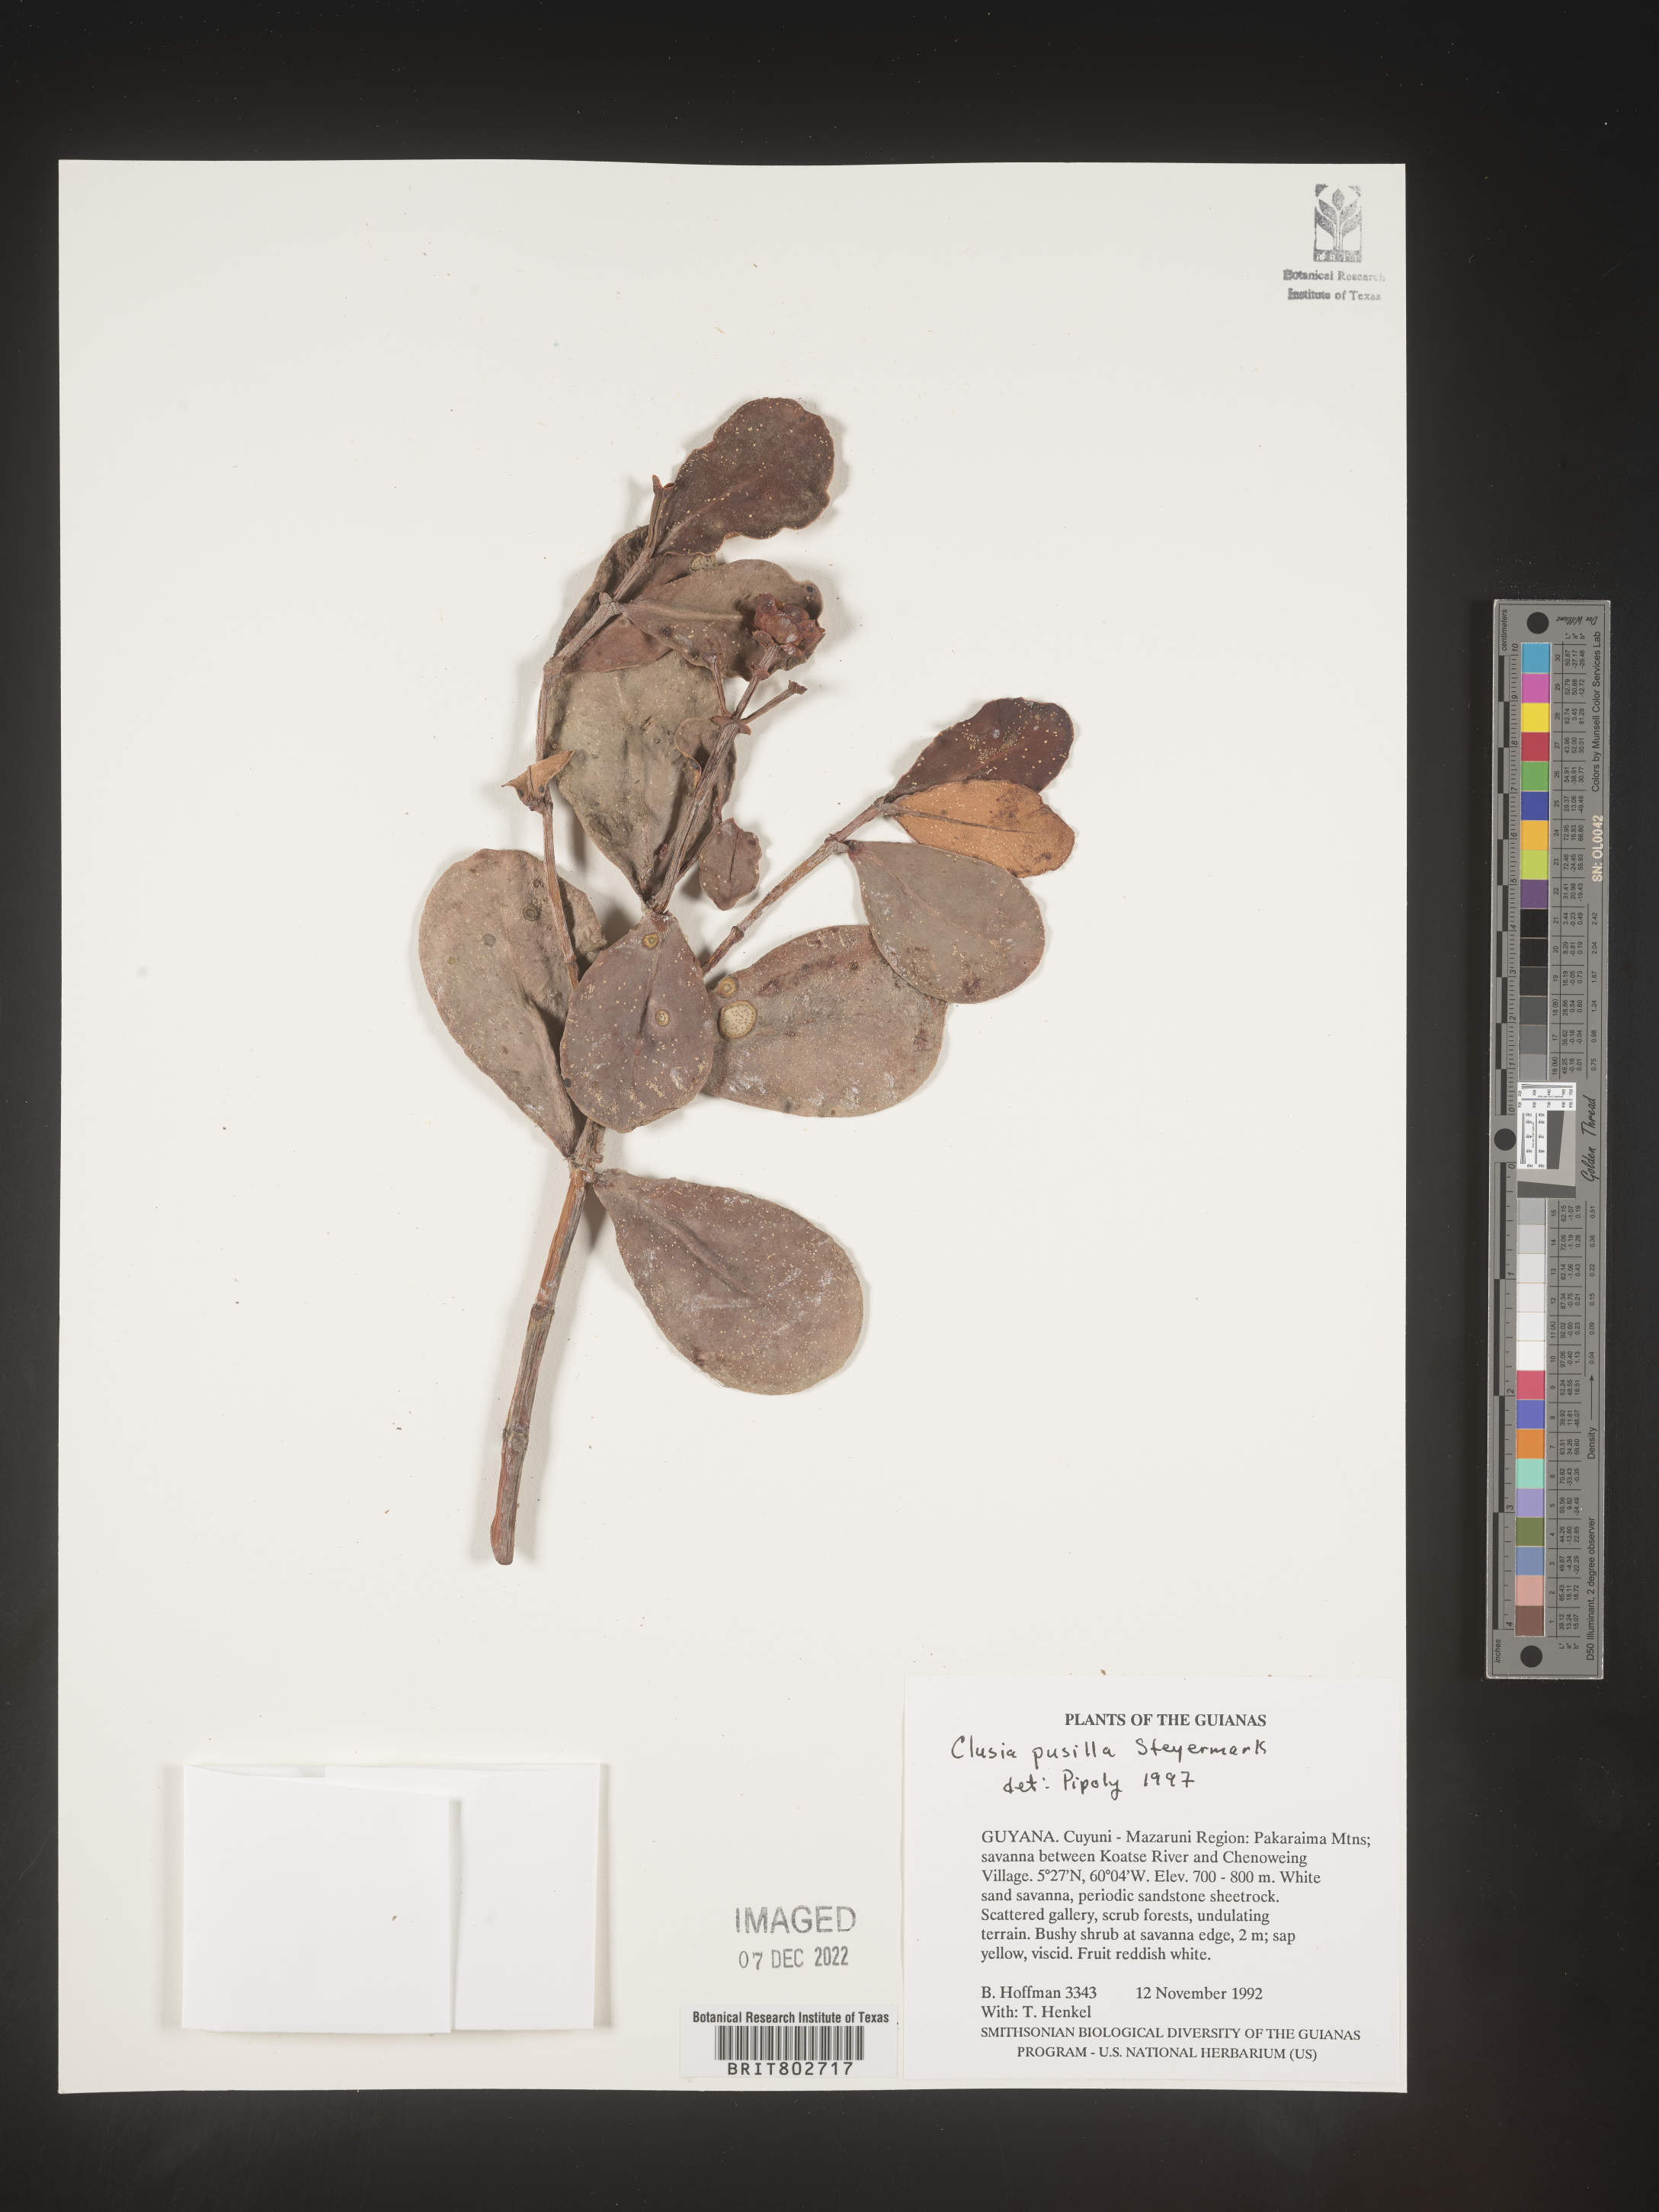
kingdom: Plantae
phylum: Tracheophyta
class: Magnoliopsida
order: Malpighiales
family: Clusiaceae
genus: Clusia
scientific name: Clusia pusilla
